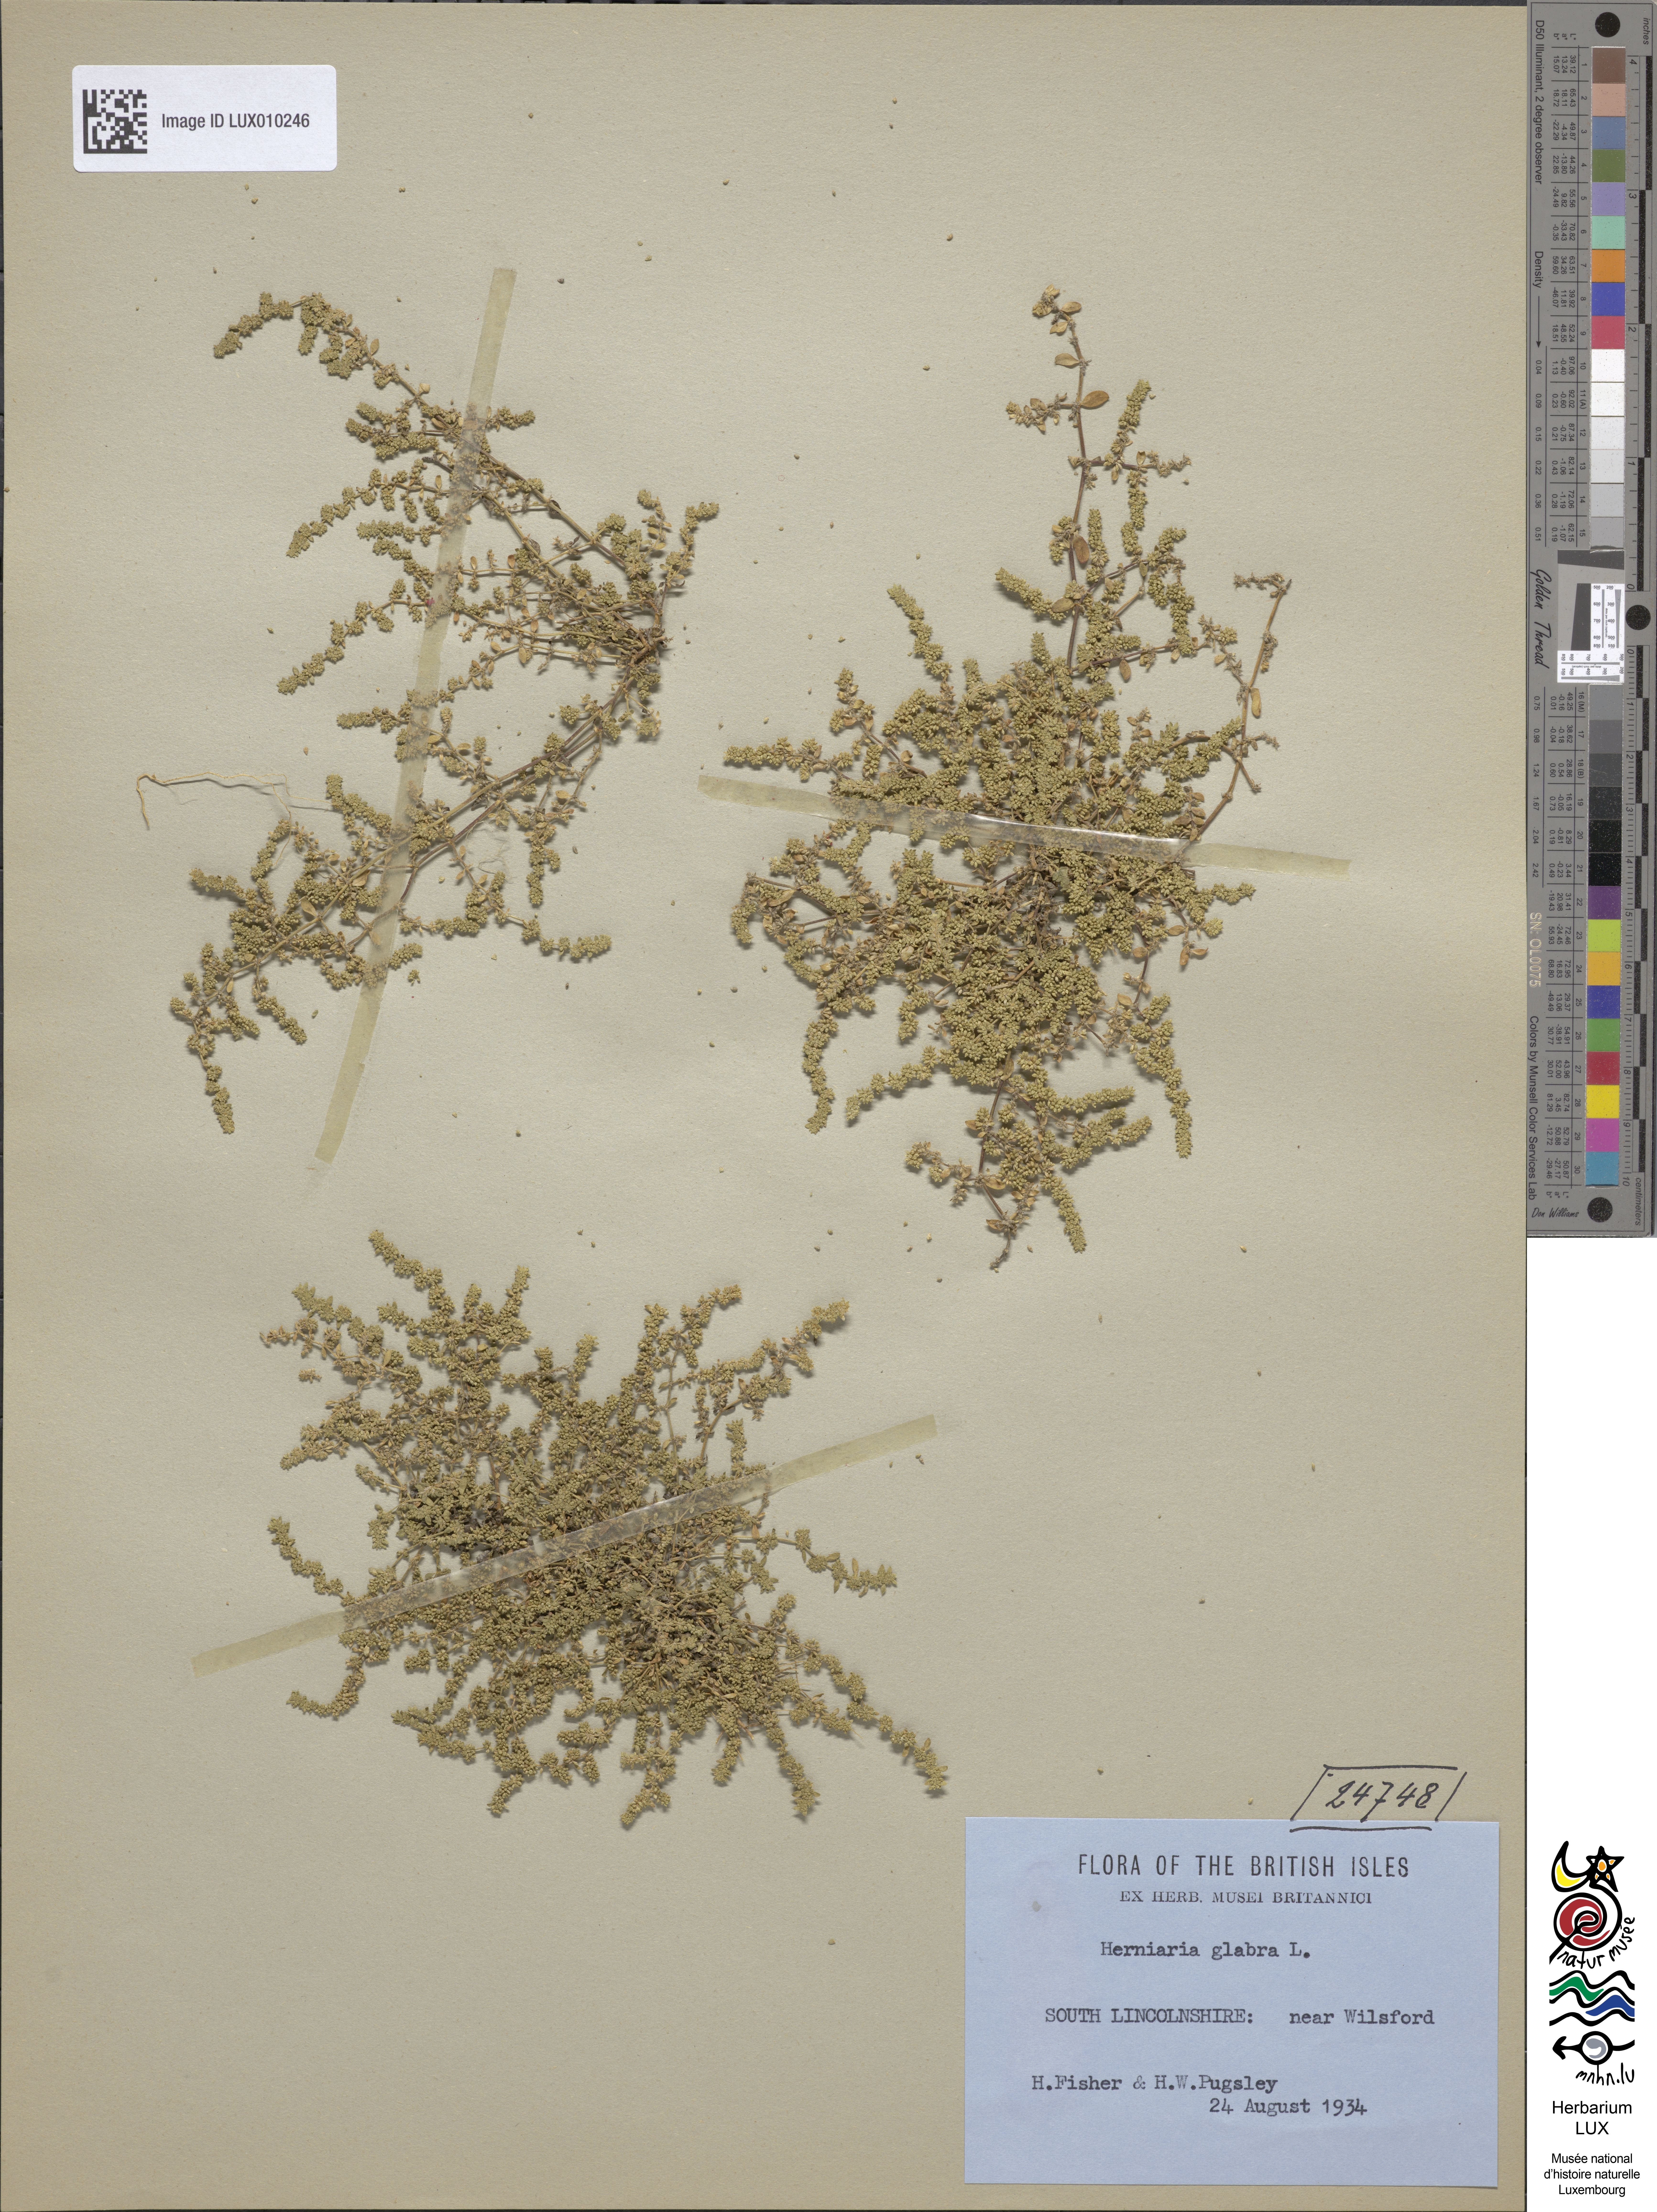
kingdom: Plantae
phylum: Tracheophyta
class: Magnoliopsida
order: Caryophyllales
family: Caryophyllaceae
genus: Herniaria
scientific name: Herniaria glabra
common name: Smooth rupturewort
